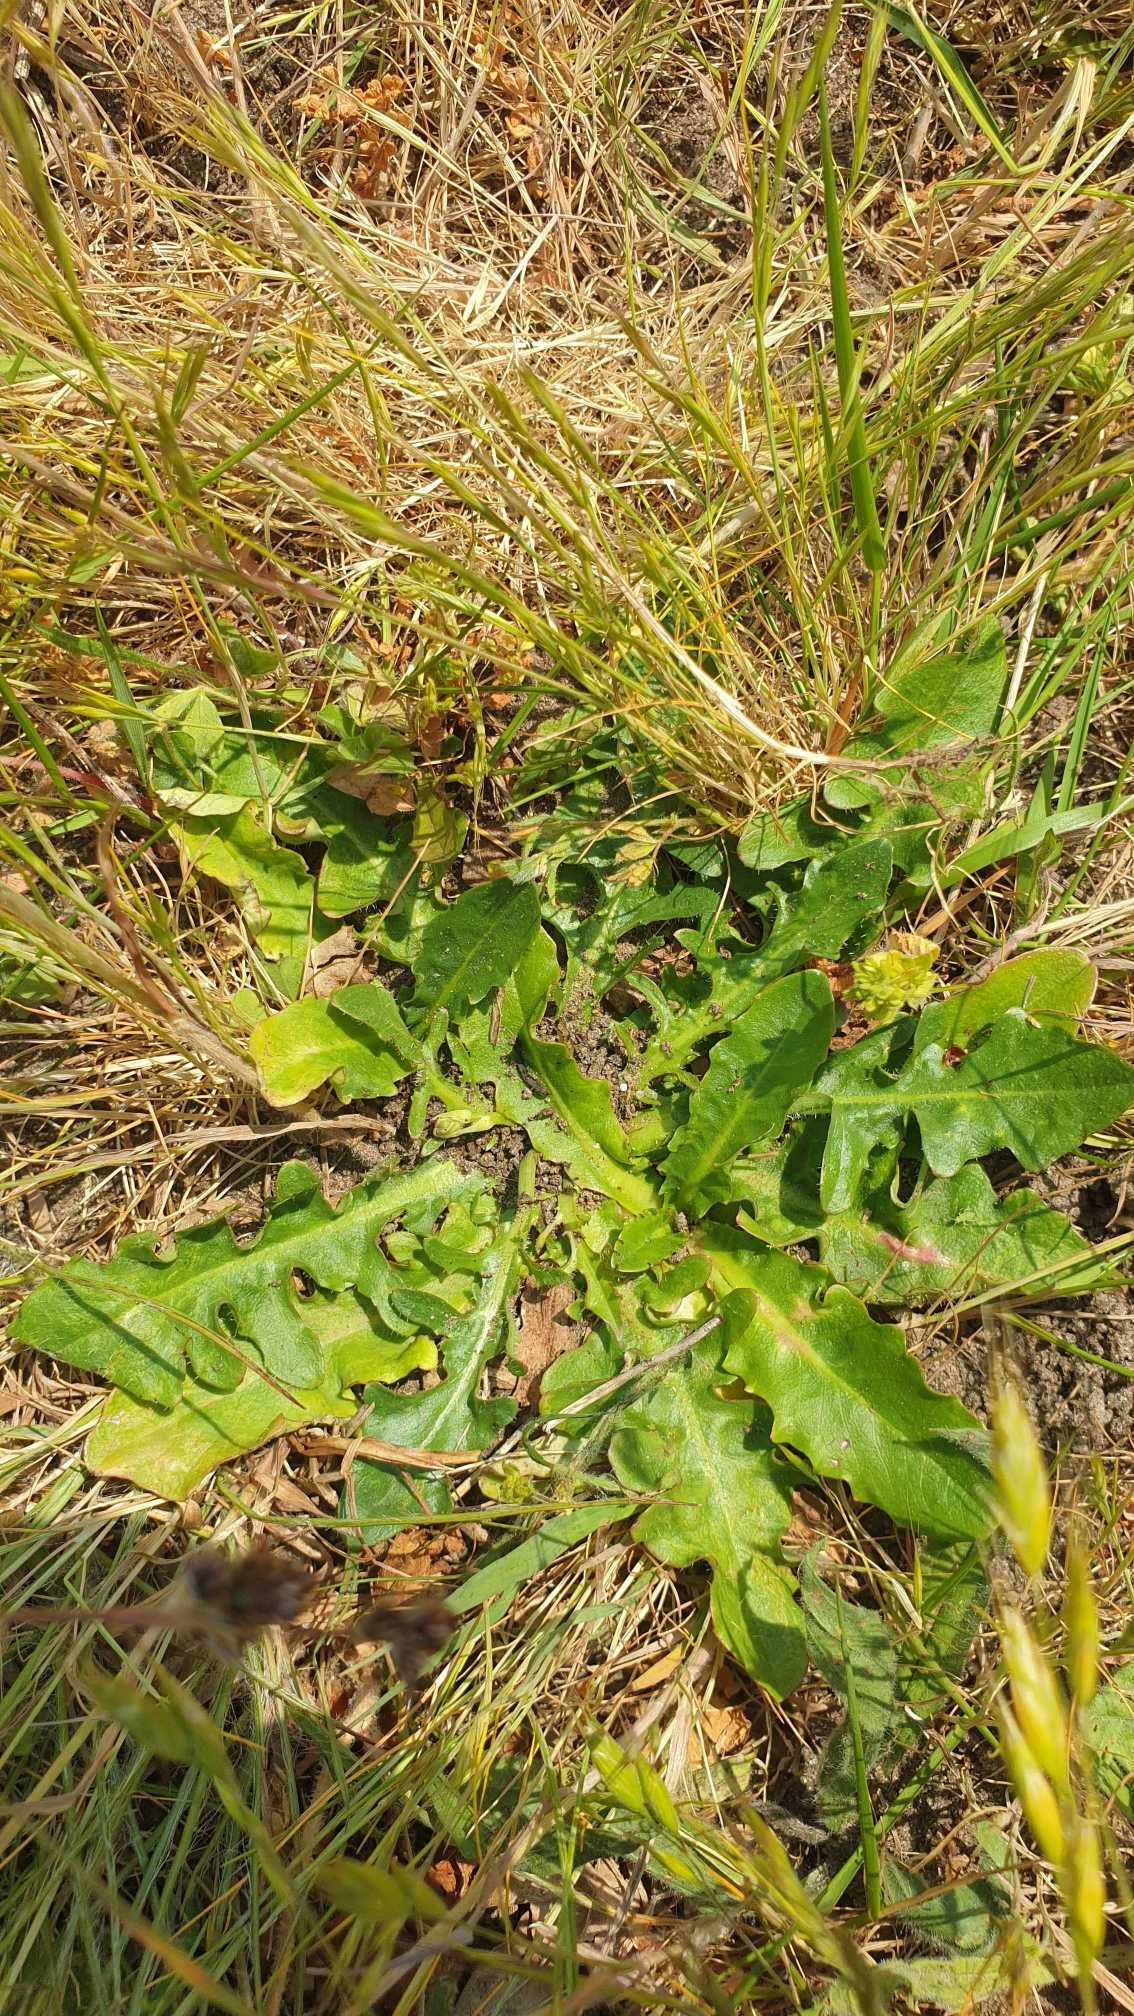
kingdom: Plantae
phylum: Tracheophyta
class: Magnoliopsida
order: Asterales
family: Asteraceae
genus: Hypochaeris
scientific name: Hypochaeris radicata
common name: Almindelig kongepen
